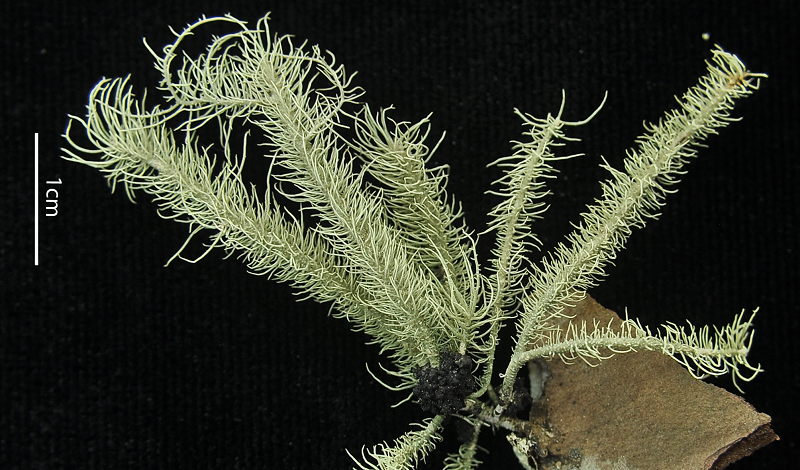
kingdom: Fungi
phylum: Ascomycota
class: Lecanoromycetes
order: Lecanorales
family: Parmeliaceae
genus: Usnea
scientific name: Usnea
